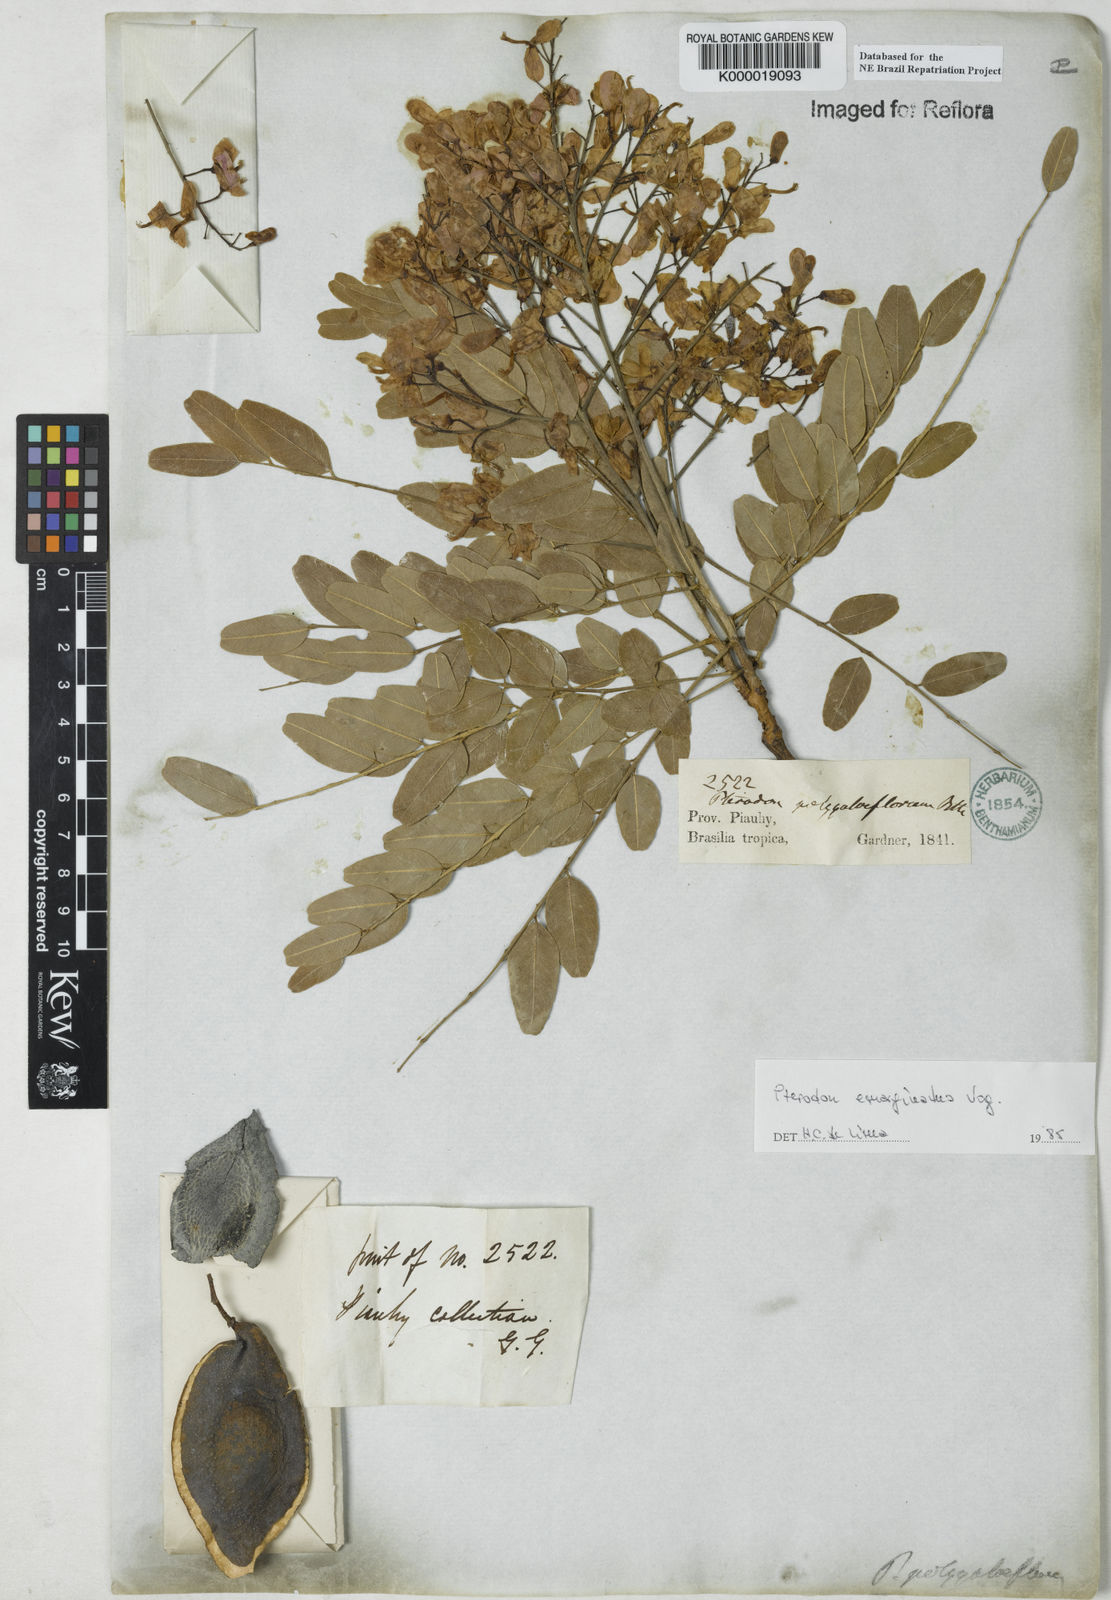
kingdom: Plantae
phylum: Tracheophyta
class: Magnoliopsida
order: Fabales
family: Fabaceae
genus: Pterodon
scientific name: Pterodon emarginatus
